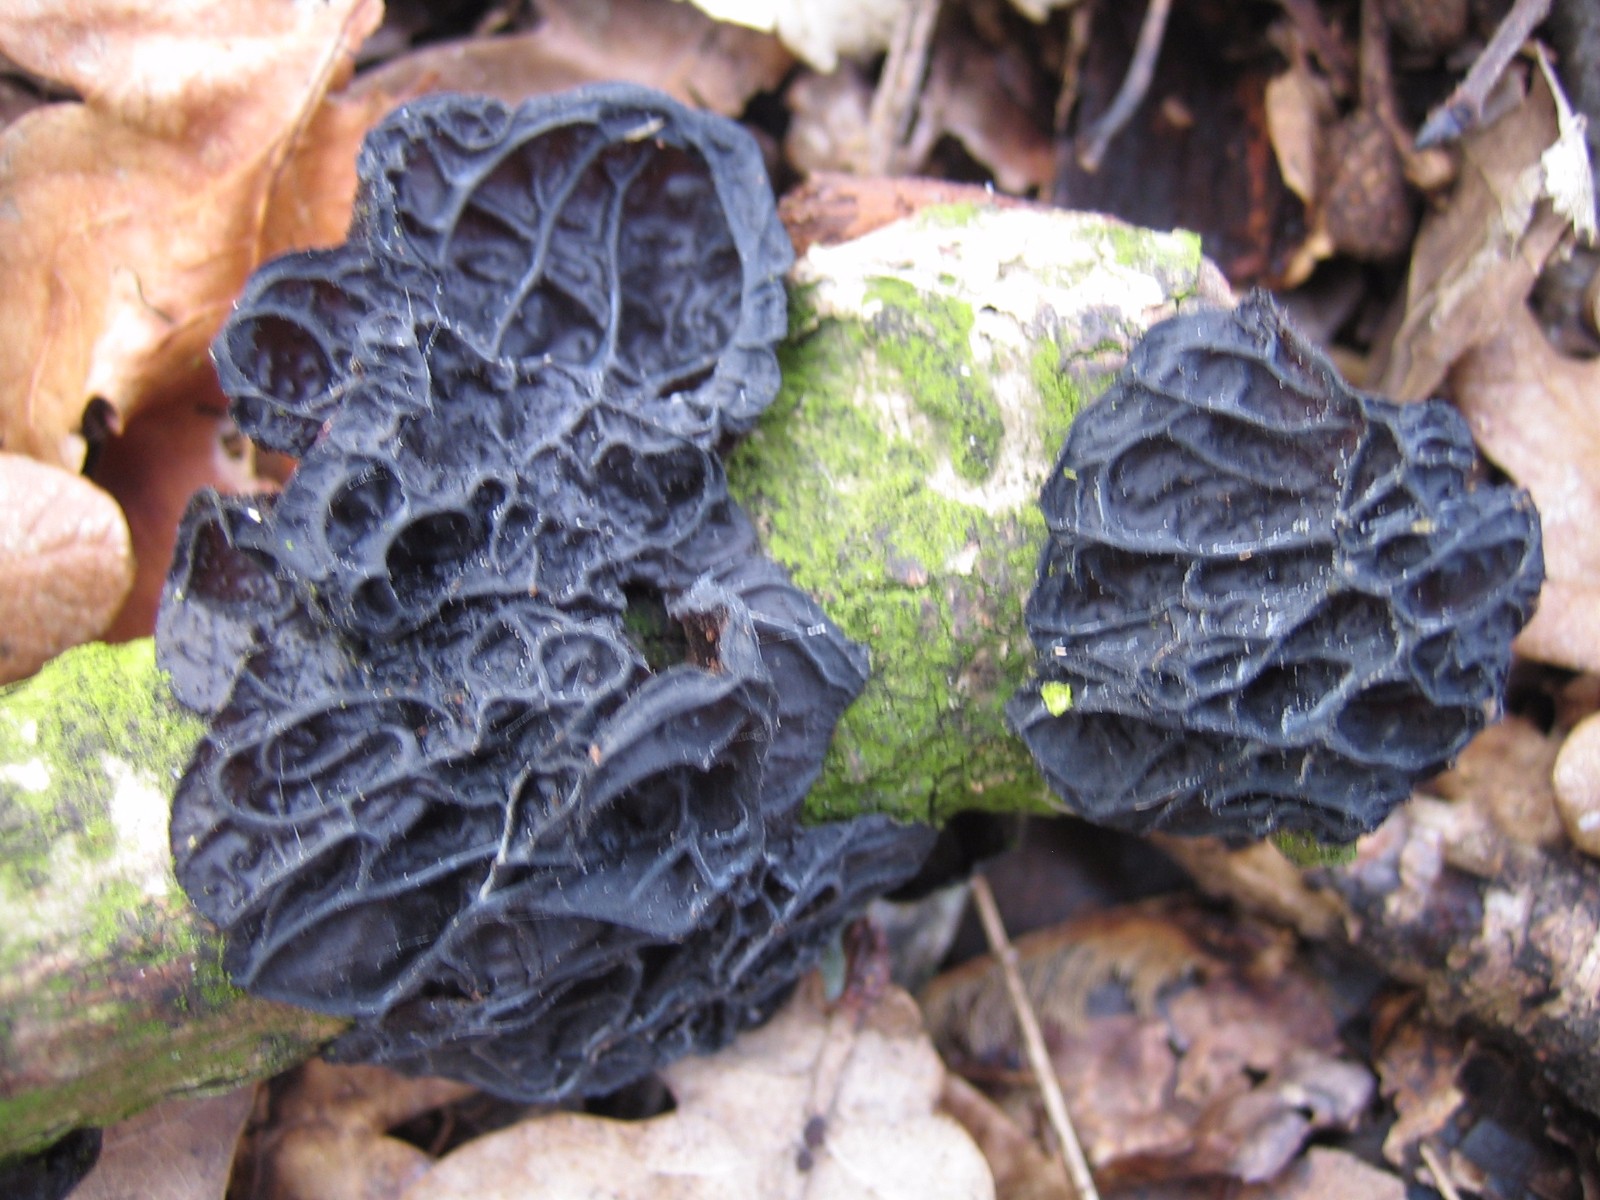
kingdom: Fungi
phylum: Basidiomycota
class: Agaricomycetes
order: Auriculariales
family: Auriculariaceae
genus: Exidia
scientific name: Exidia glandulosa
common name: ege-bævretop
